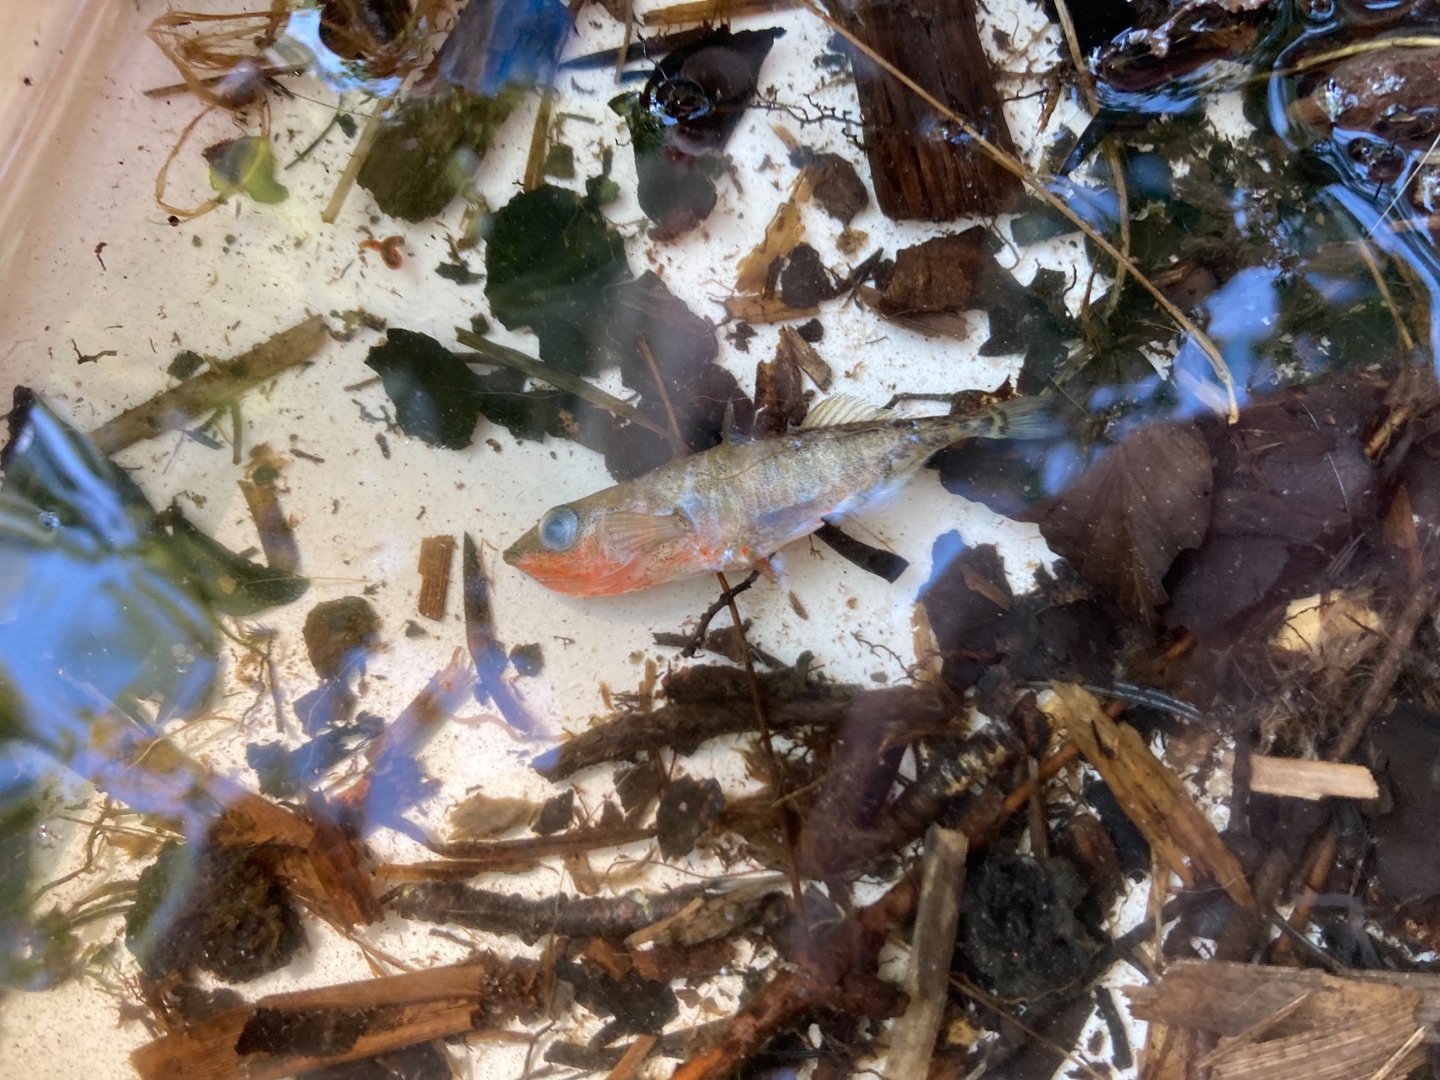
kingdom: Animalia
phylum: Chordata
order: Gasterosteiformes
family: Gasterosteidae
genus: Gasterosteus
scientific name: Gasterosteus aculeatus
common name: Trepigget hundestejle
